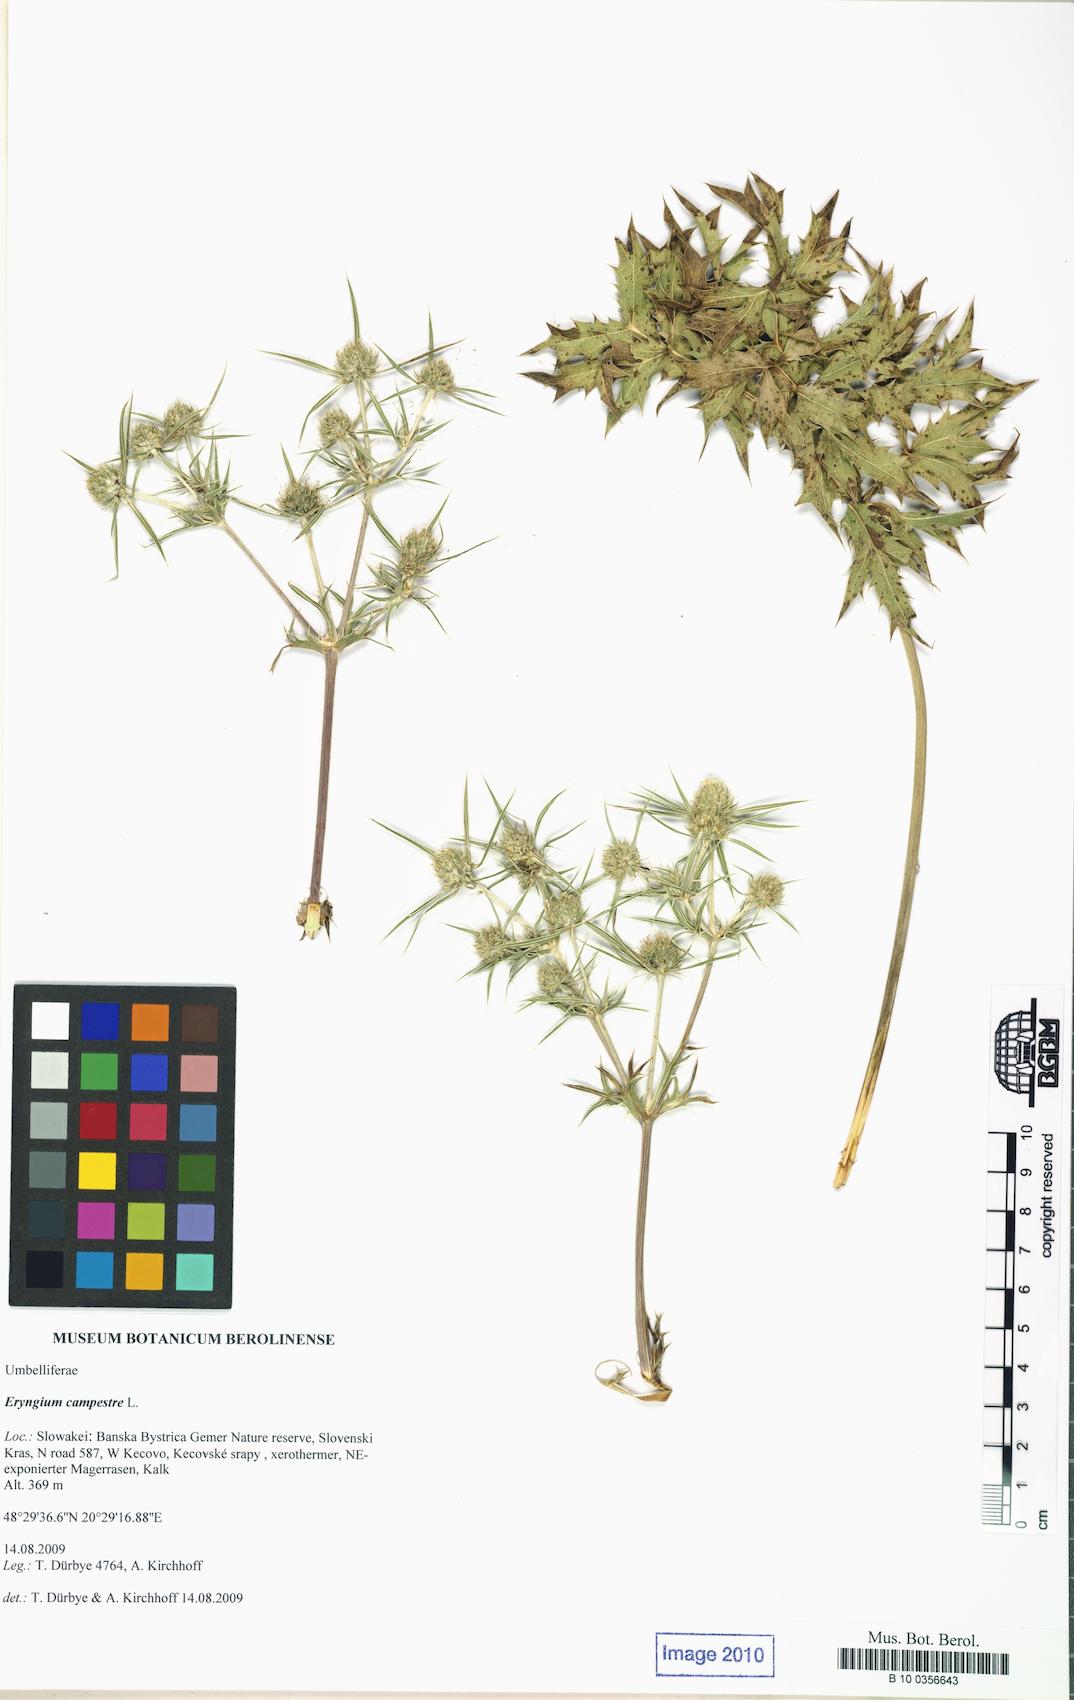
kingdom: Plantae
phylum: Tracheophyta
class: Magnoliopsida
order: Apiales
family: Apiaceae
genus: Eryngium
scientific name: Eryngium campestre
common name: Field eryngo
